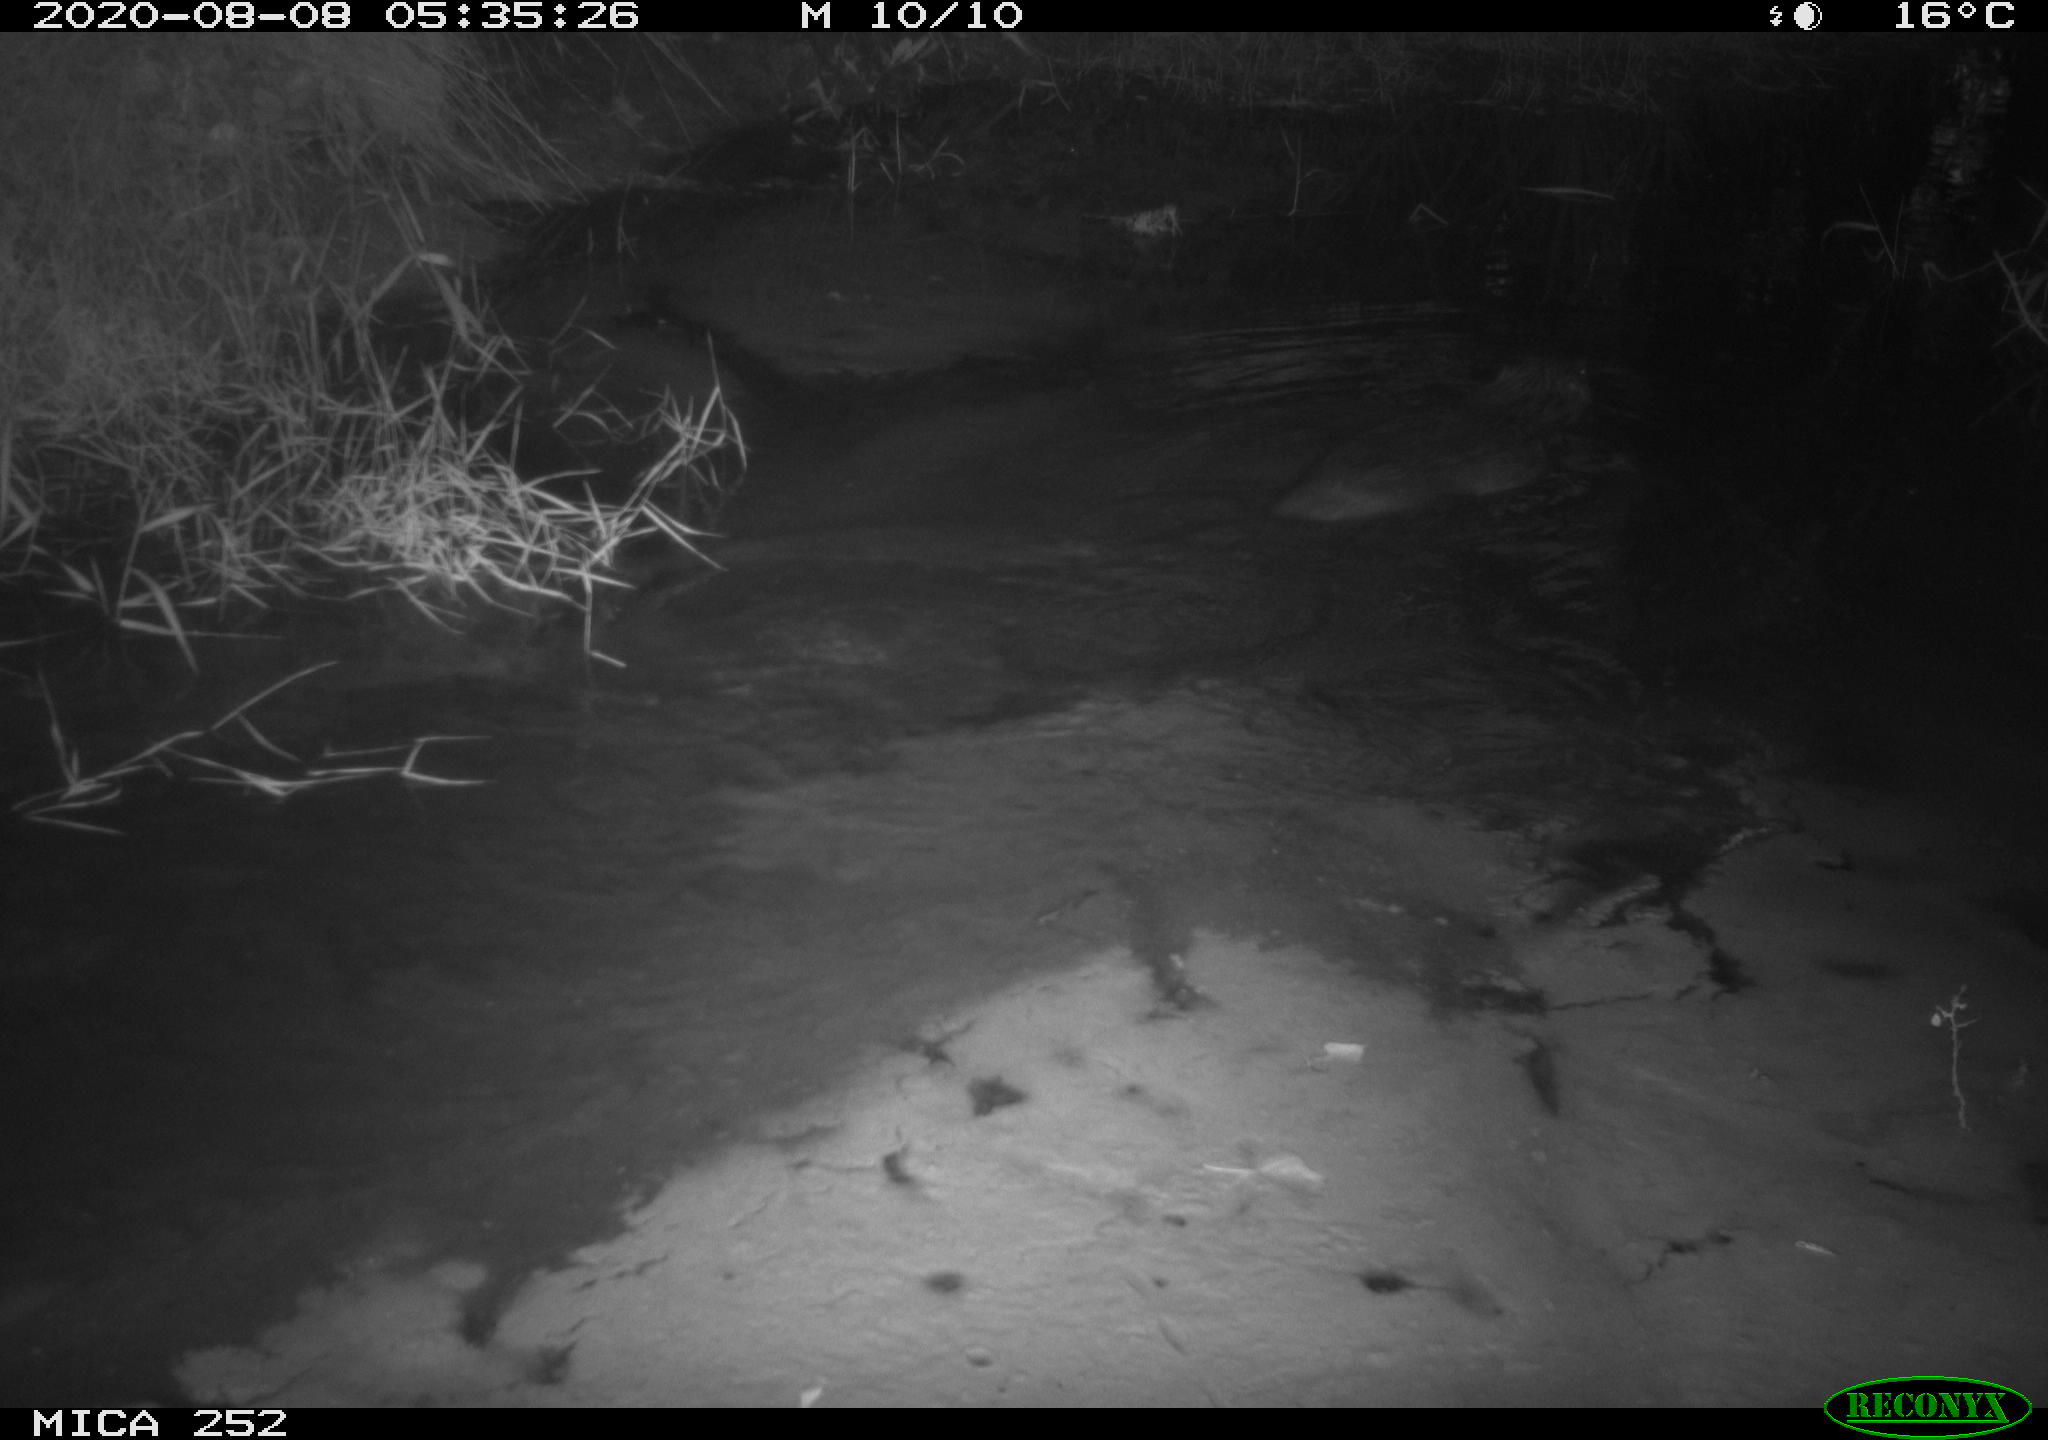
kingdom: Animalia
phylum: Chordata
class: Mammalia
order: Rodentia
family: Castoridae
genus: Castor
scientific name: Castor fiber
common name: Eurasian beaver
